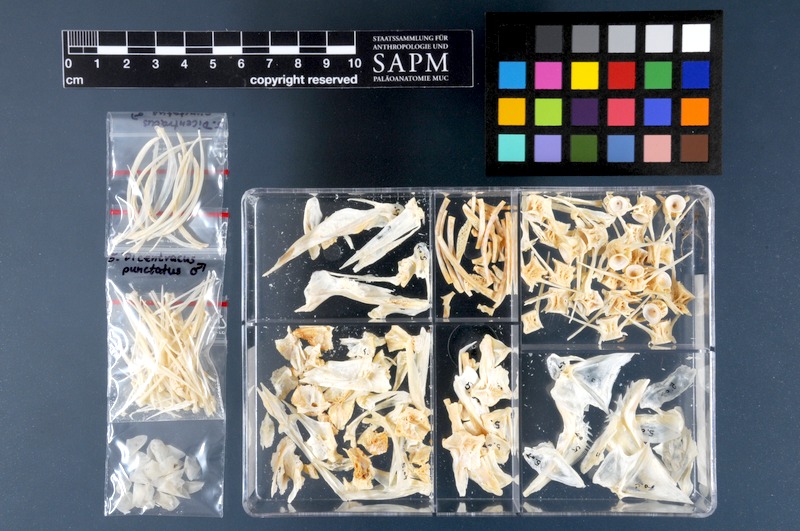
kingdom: Animalia
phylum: Chordata
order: Perciformes
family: Moronidae
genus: Dicentrarchus
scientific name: Dicentrarchus punctatus
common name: Black-spotted bass
